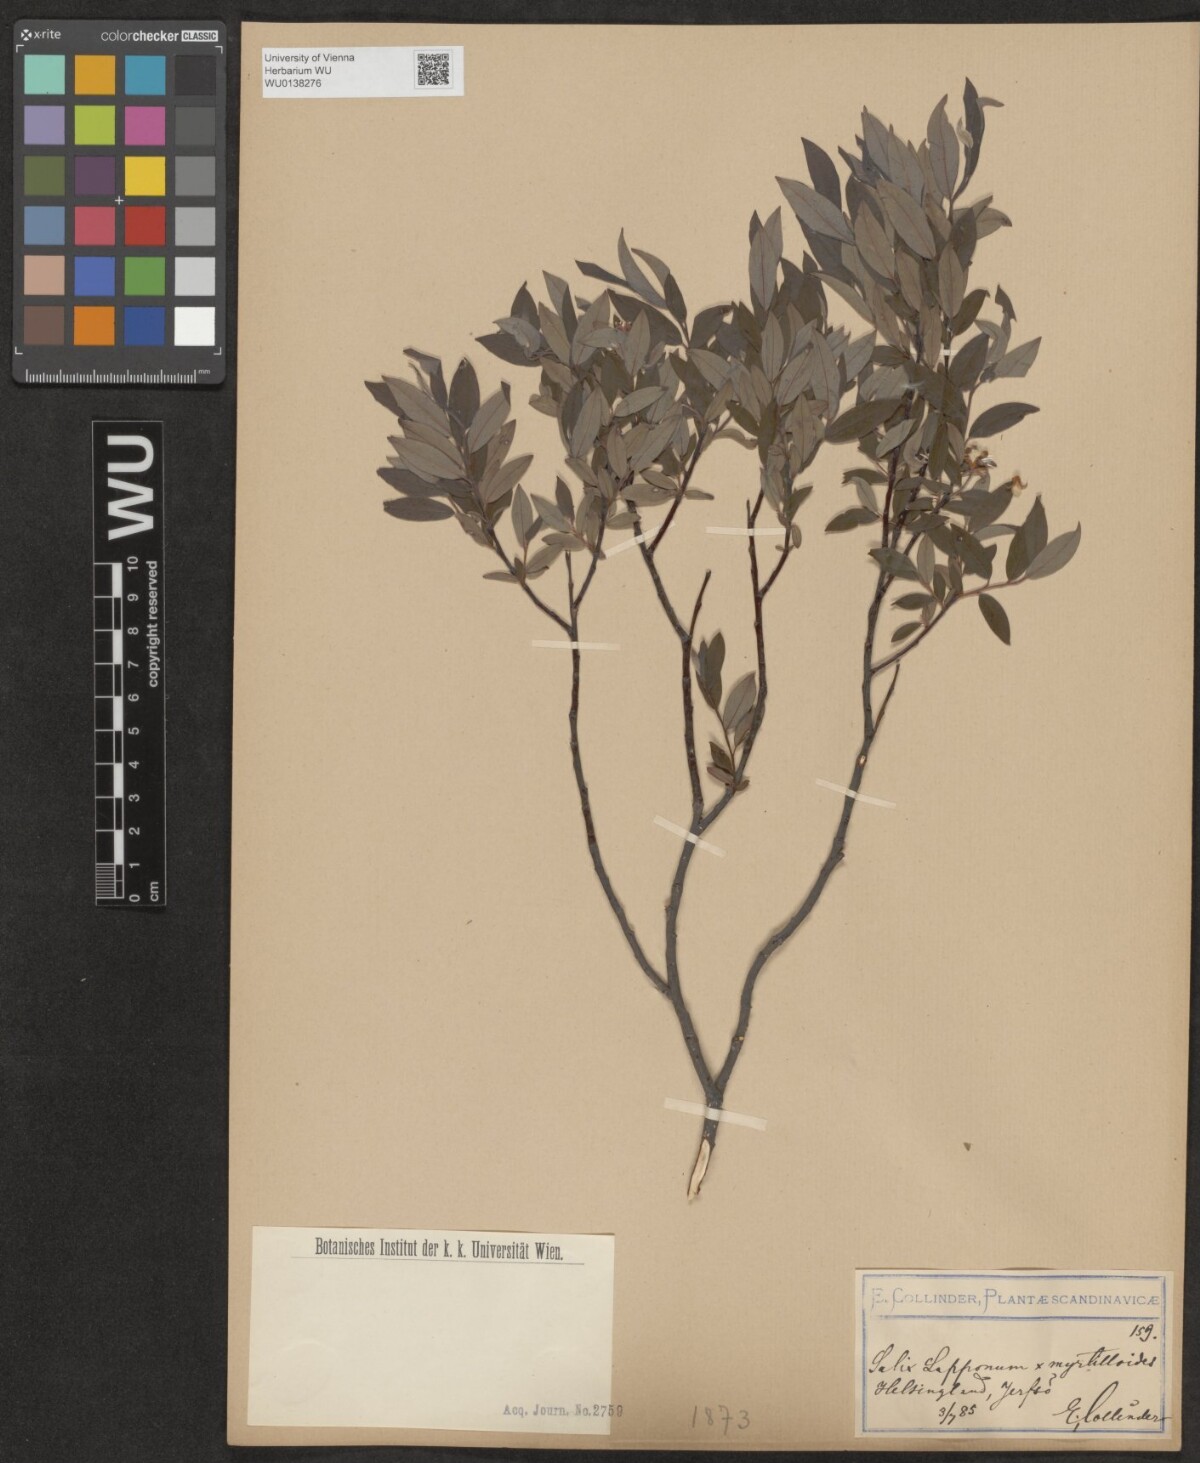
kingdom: Plantae
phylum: Tracheophyta
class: Magnoliopsida
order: Malpighiales
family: Salicaceae
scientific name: Salicaceae
